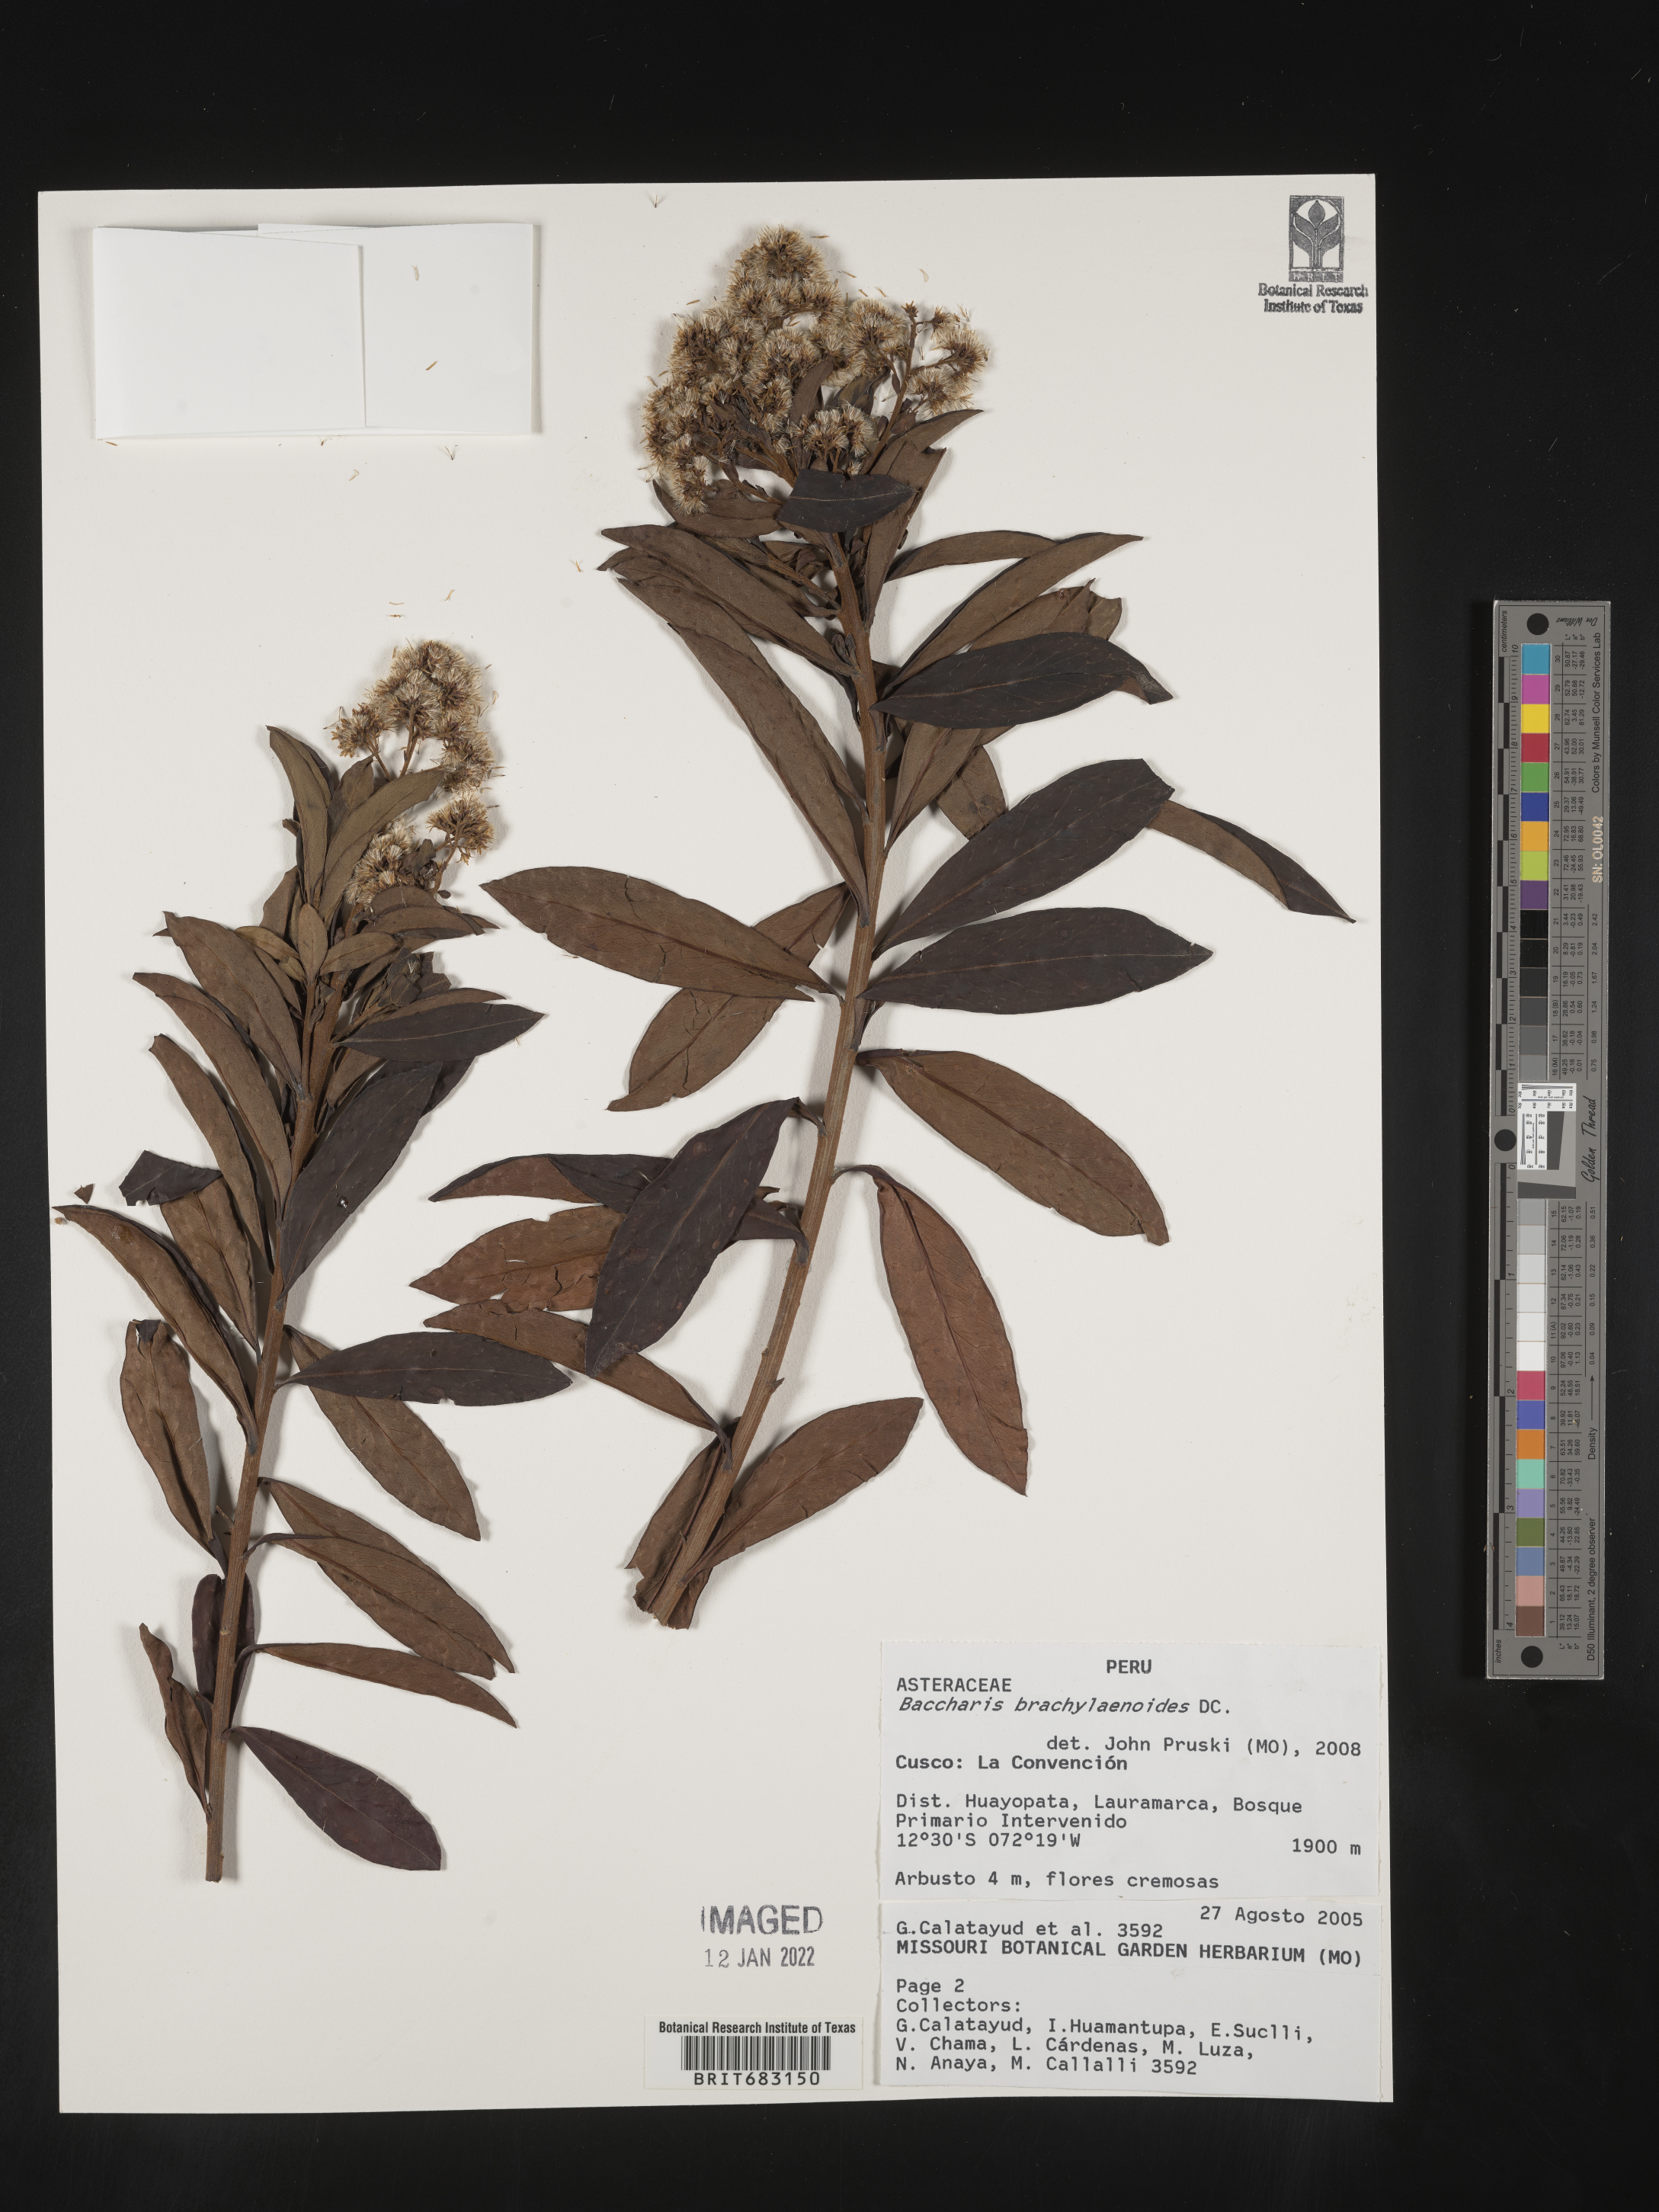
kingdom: Plantae
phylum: Tracheophyta
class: Magnoliopsida
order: Asterales
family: Asteraceae
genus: Baccharis
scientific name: Baccharis
